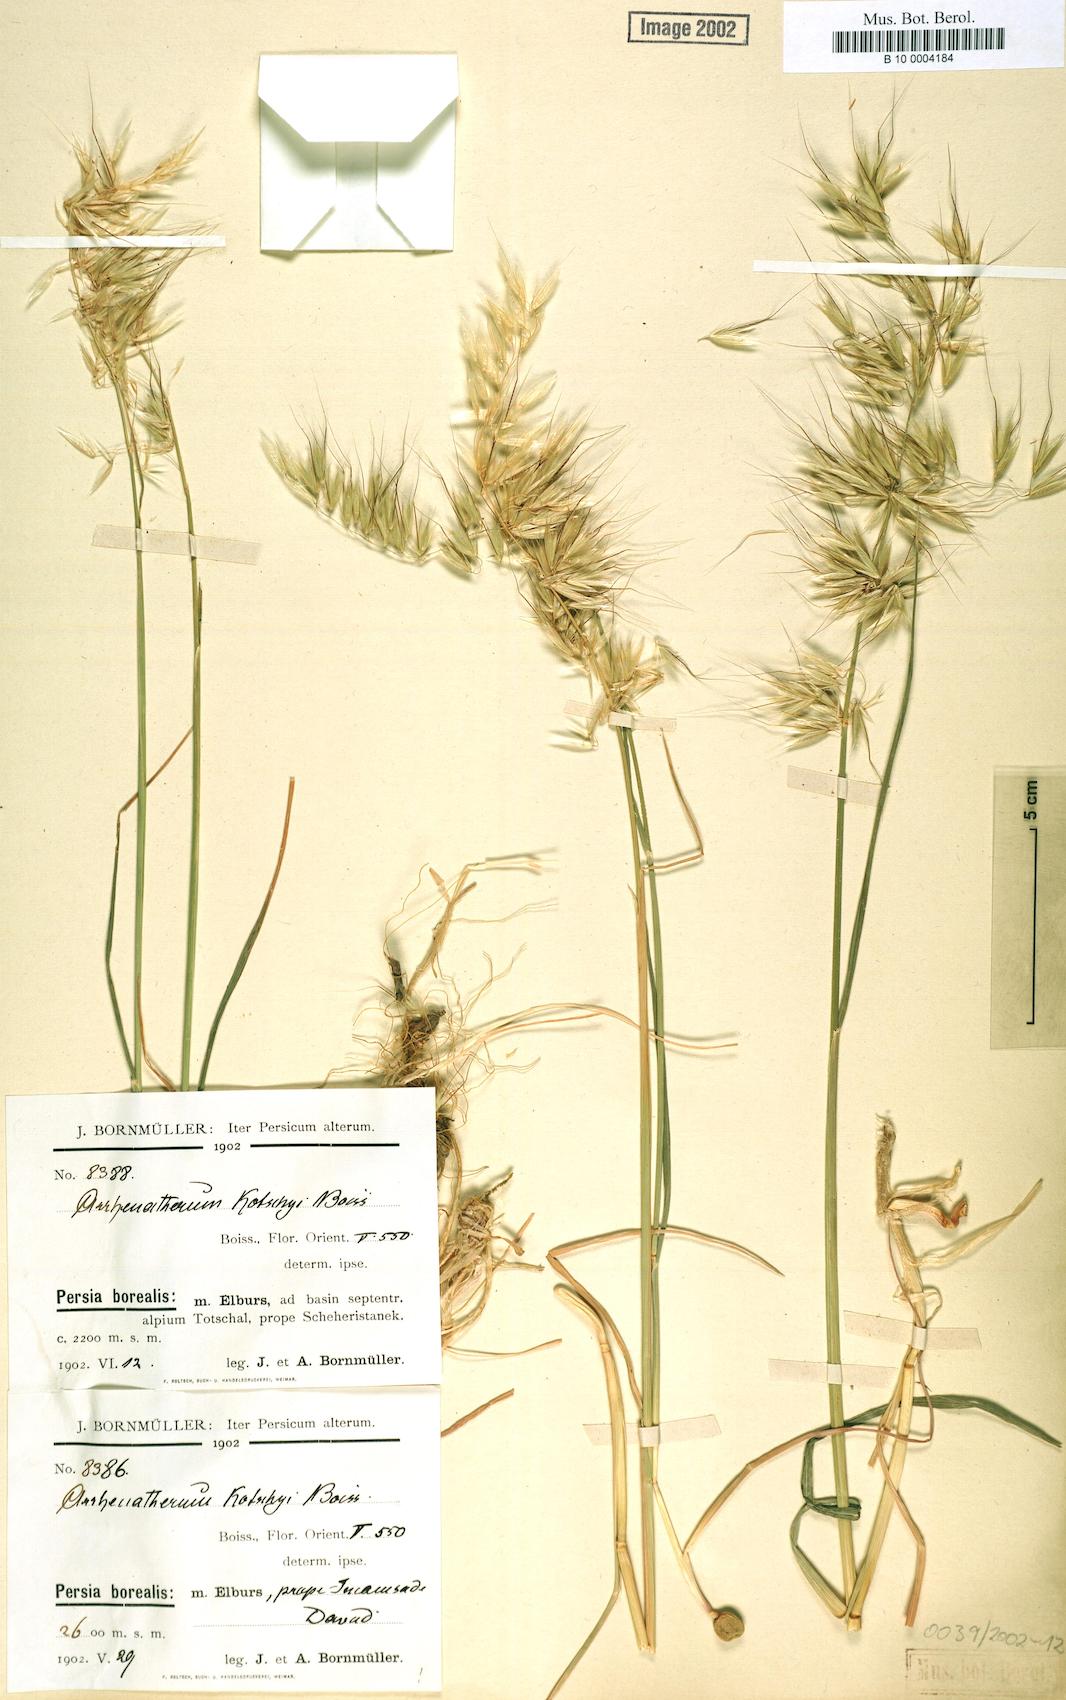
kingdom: Plantae
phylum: Tracheophyta
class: Liliopsida
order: Poales
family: Poaceae
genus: Arrhenatherum
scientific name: Arrhenatherum kotschyi
